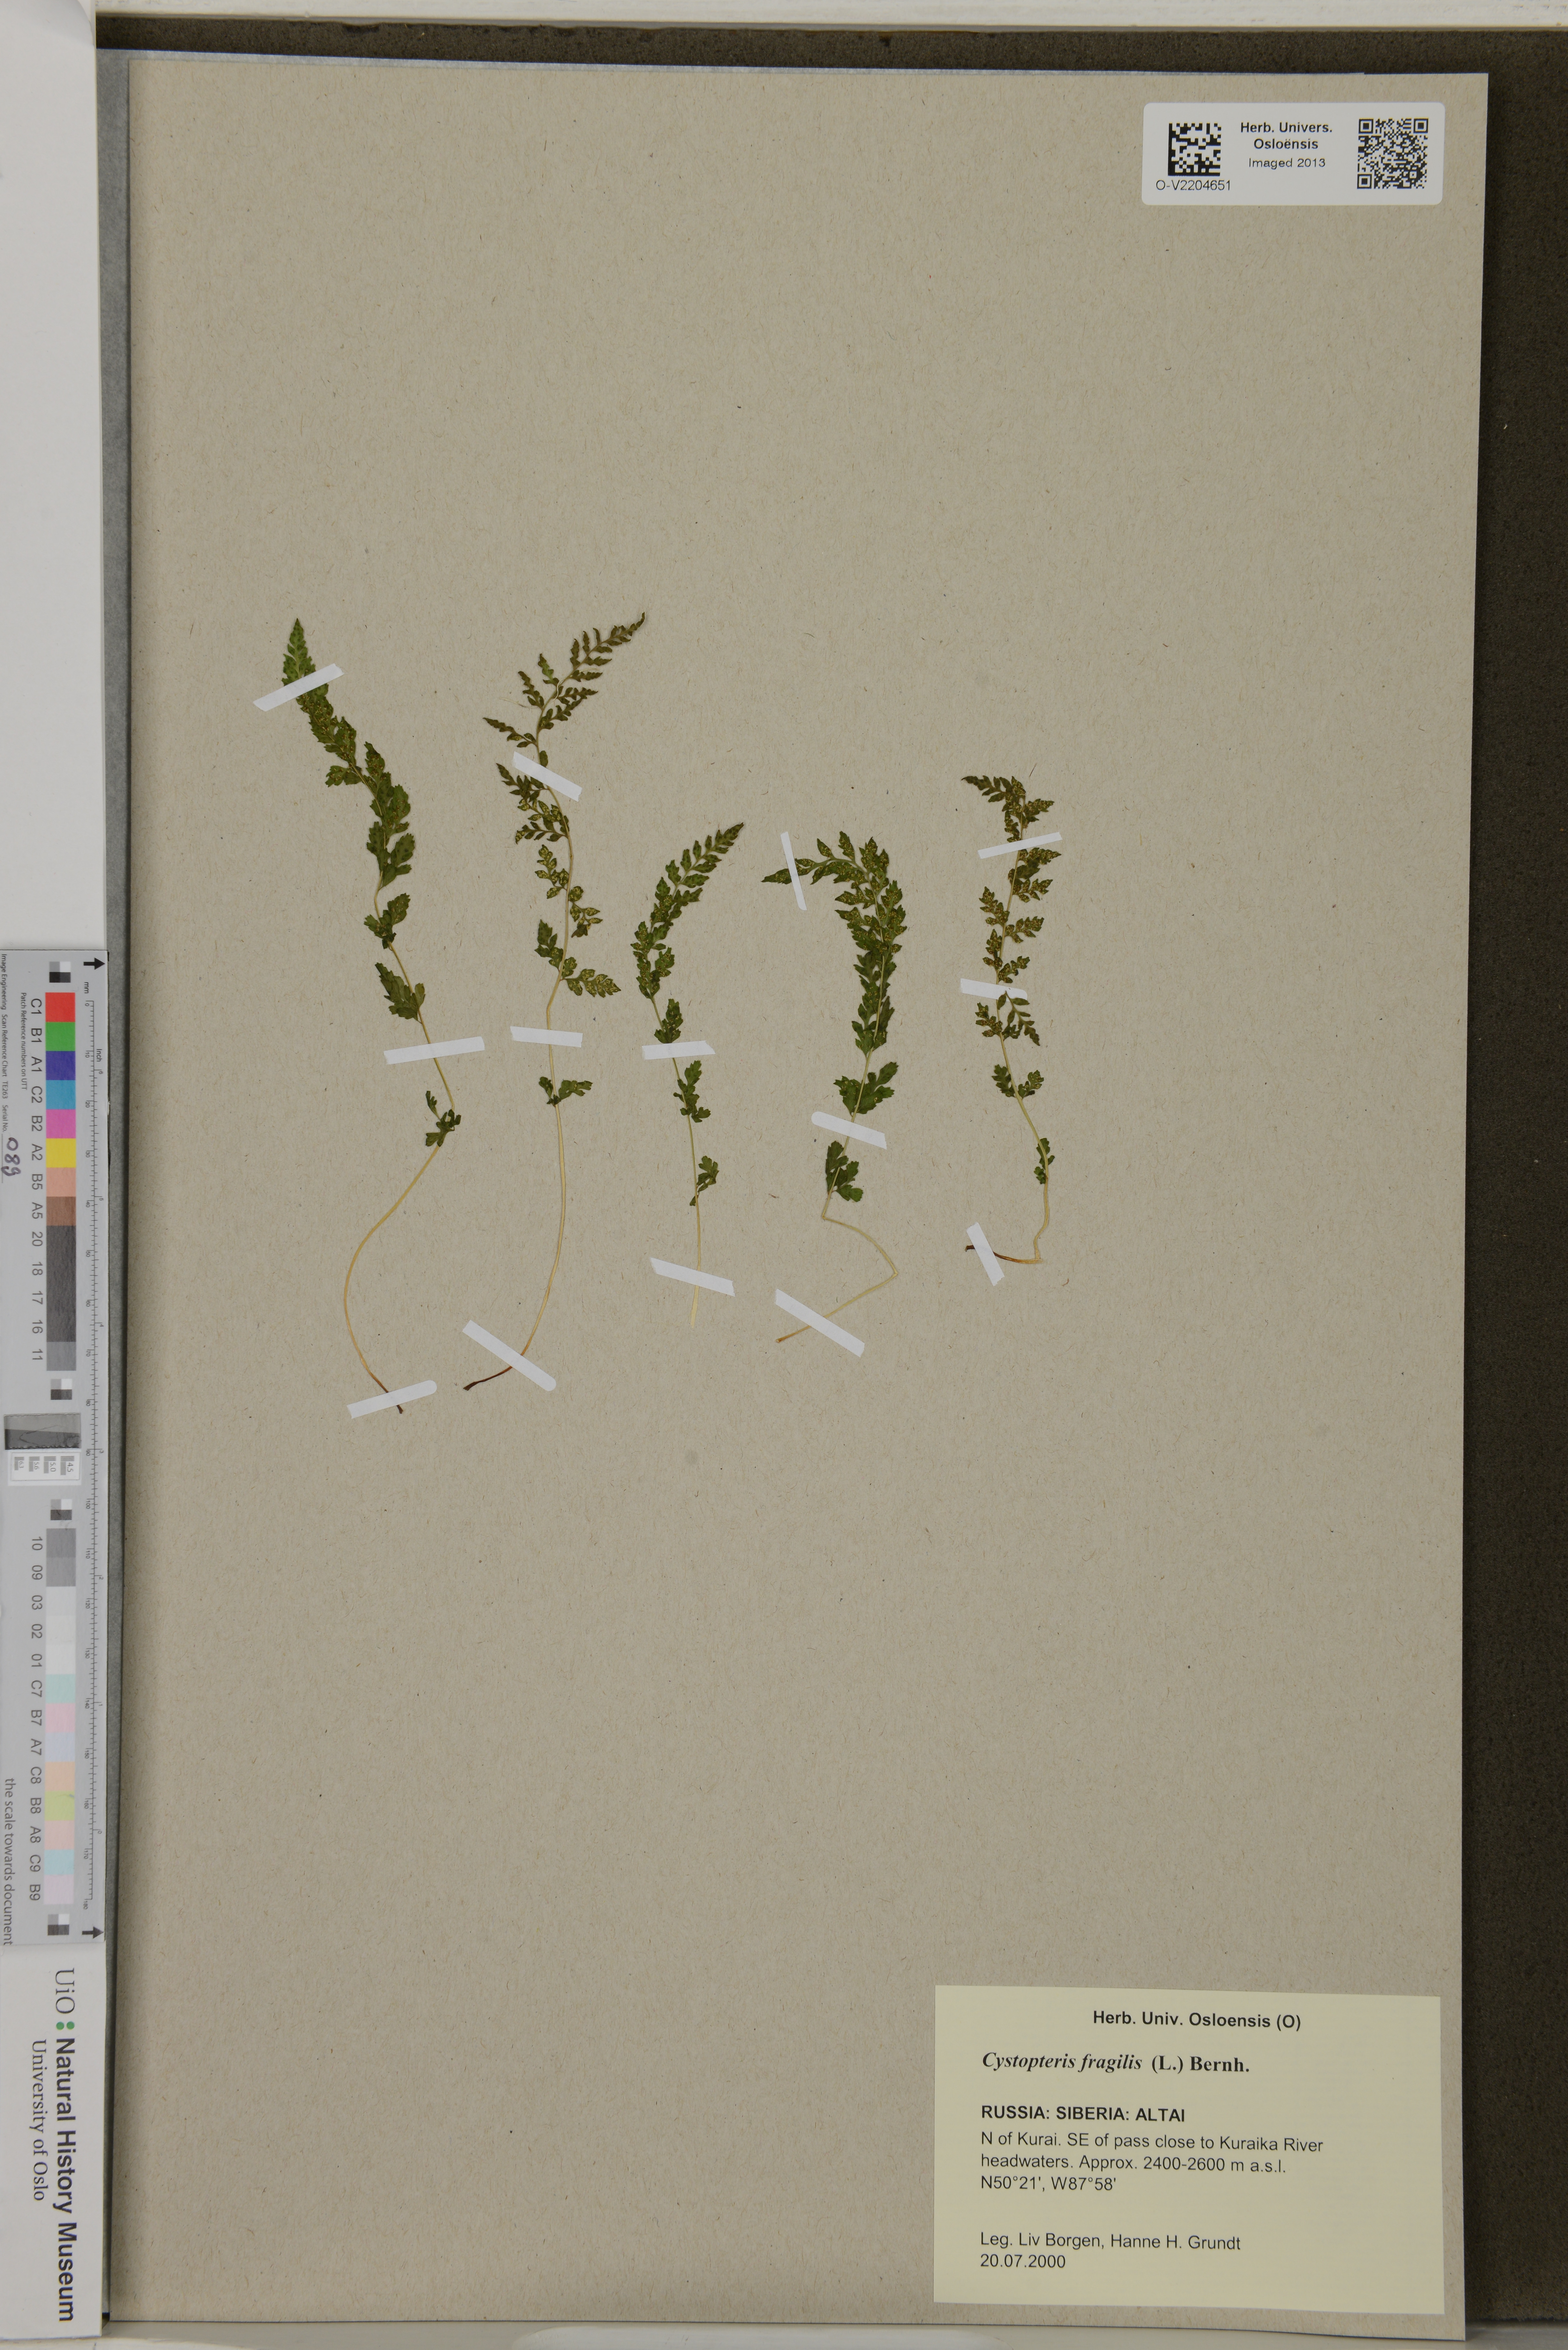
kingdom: Plantae
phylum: Tracheophyta
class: Polypodiopsida
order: Polypodiales
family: Cystopteridaceae
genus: Cystopteris
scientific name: Cystopteris fragilis
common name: Brittle bladder fern
